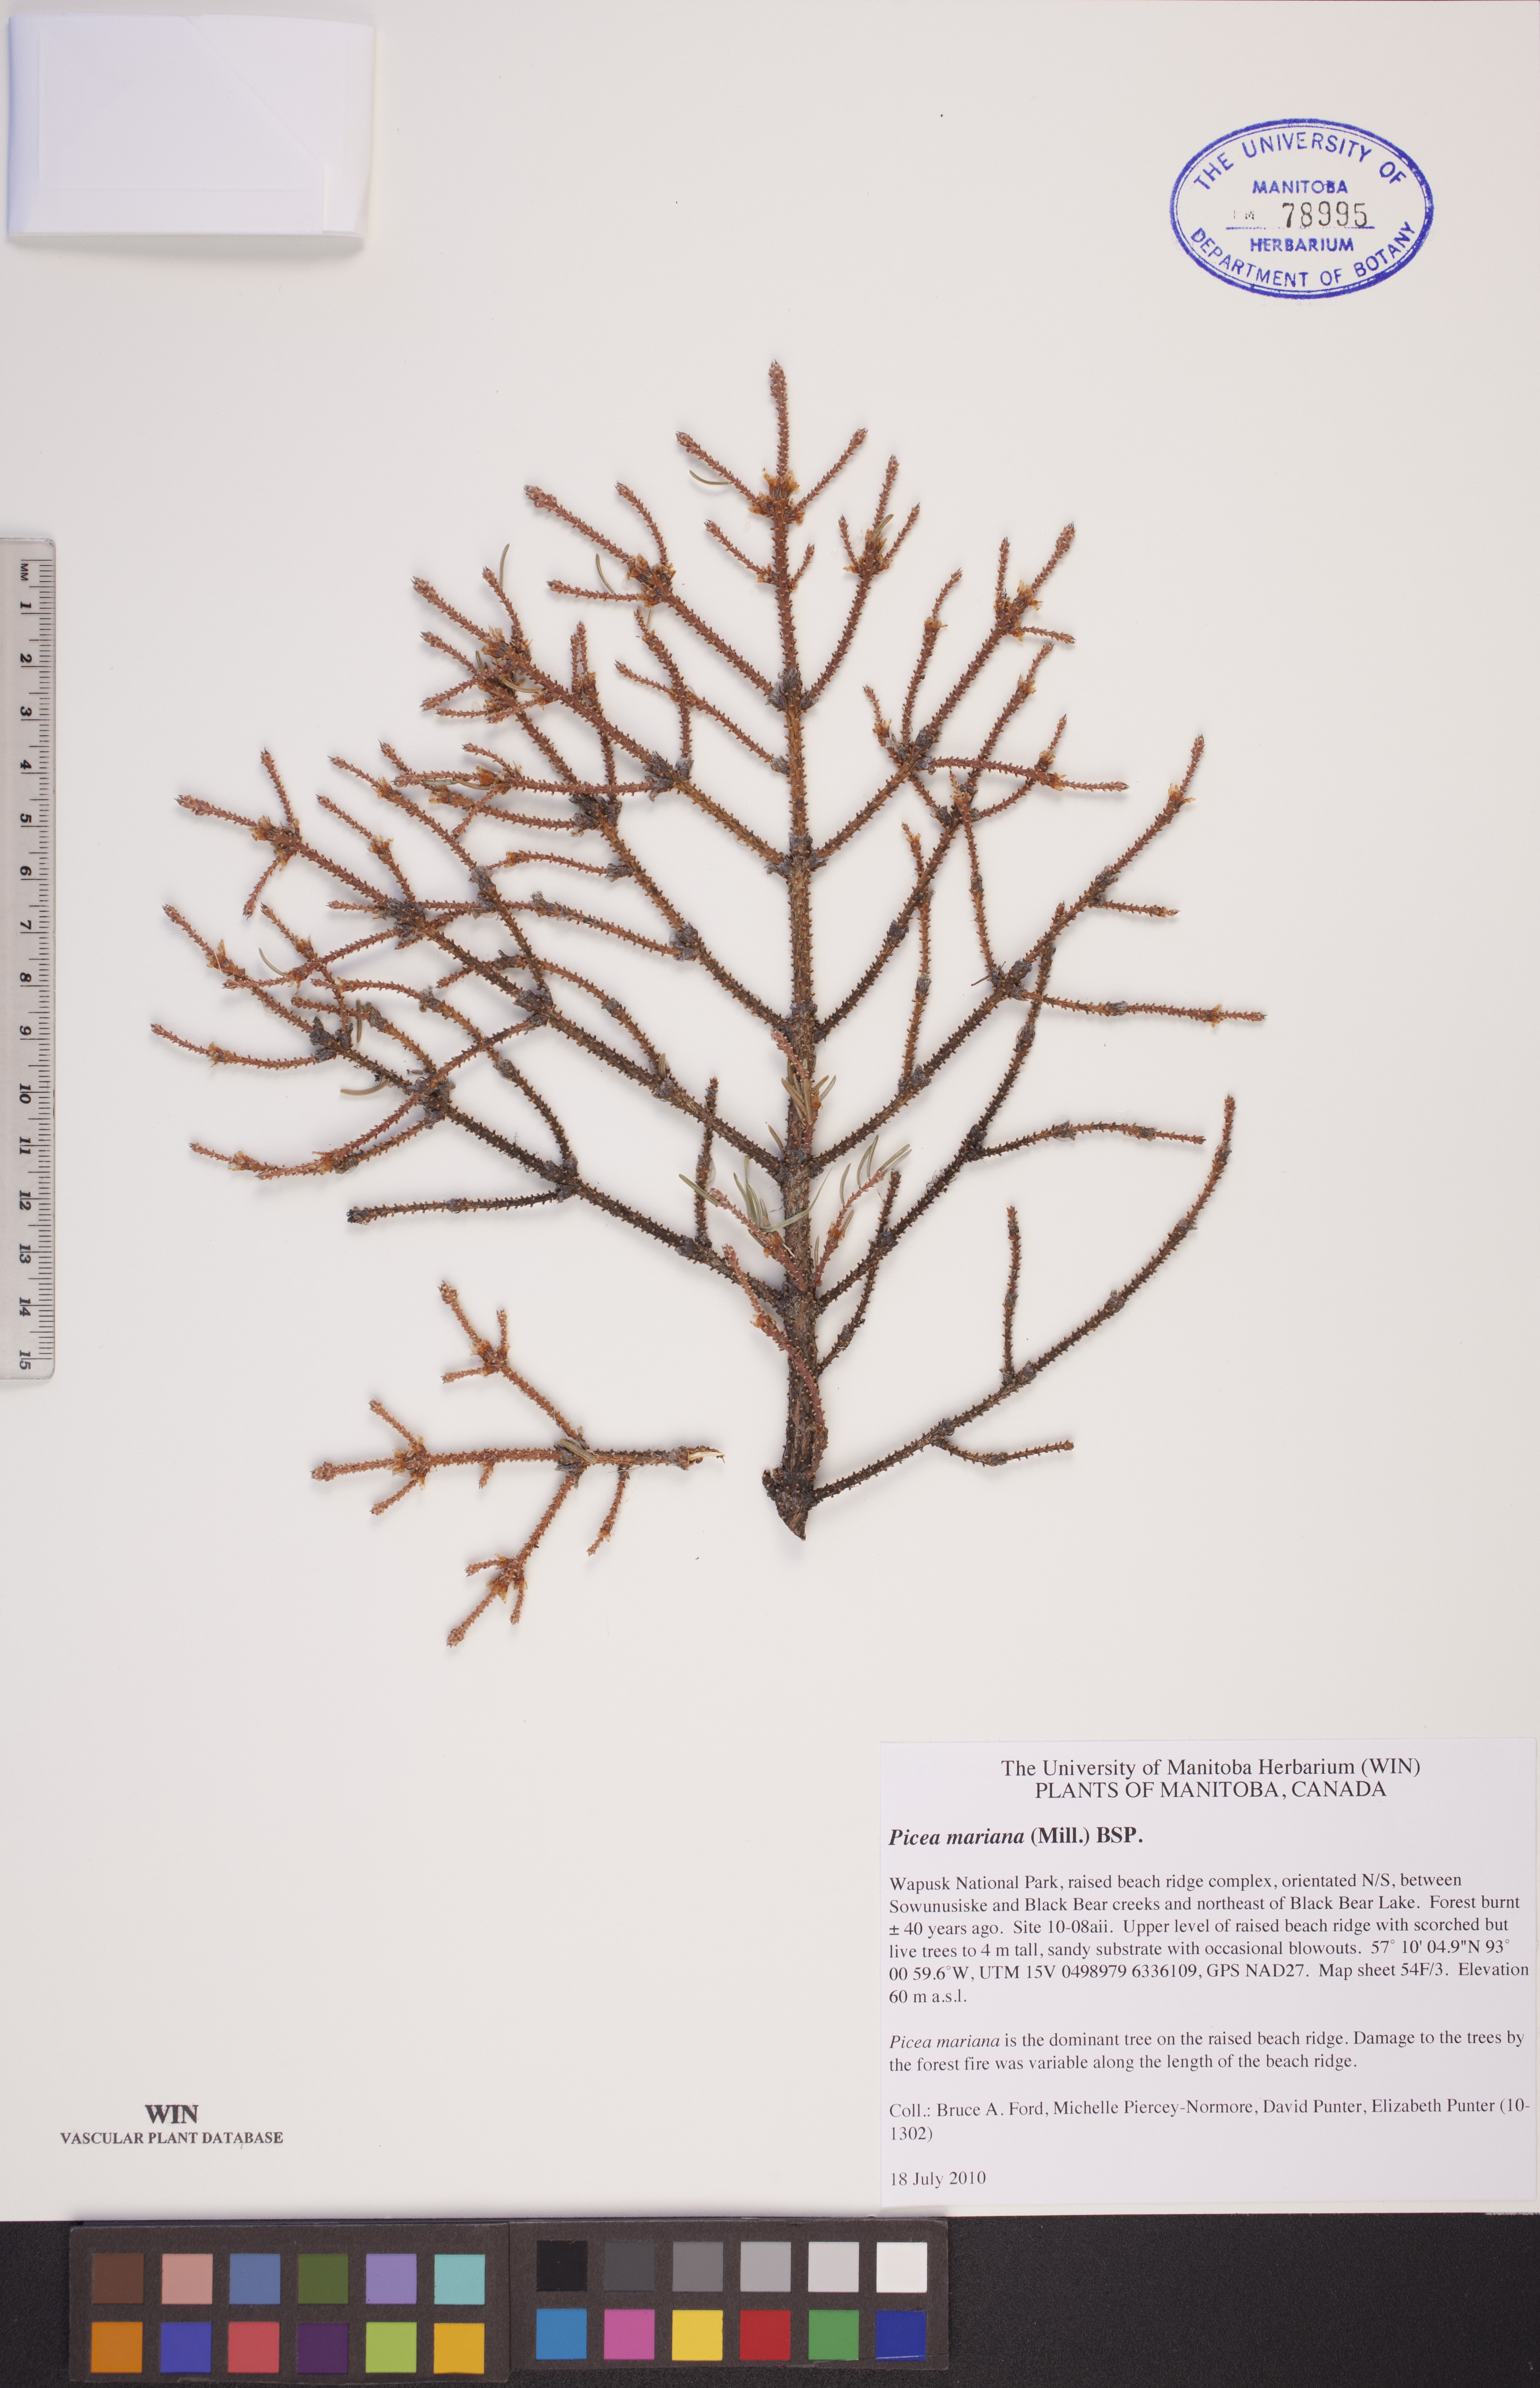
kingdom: Plantae
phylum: Tracheophyta
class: Pinopsida
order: Pinales
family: Pinaceae
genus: Picea
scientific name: Picea mariana
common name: Black spruce
